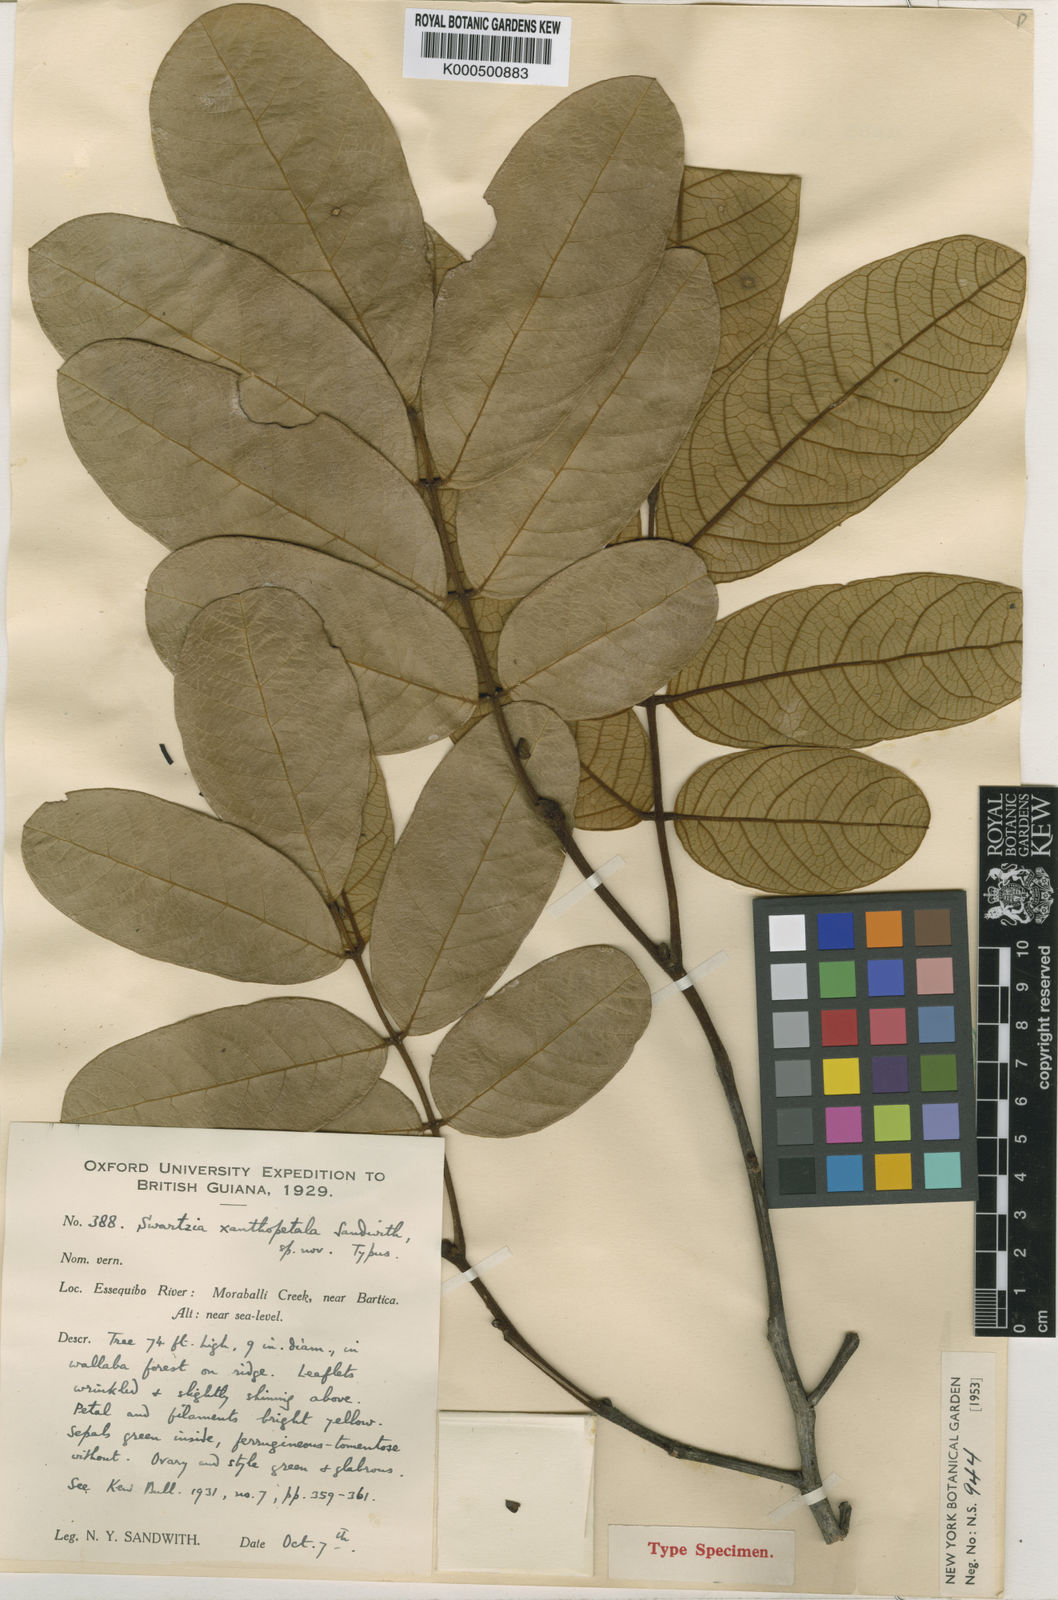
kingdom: Plantae
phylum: Tracheophyta
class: Magnoliopsida
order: Fabales
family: Fabaceae
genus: Swartzia
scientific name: Swartzia xanthopetala
